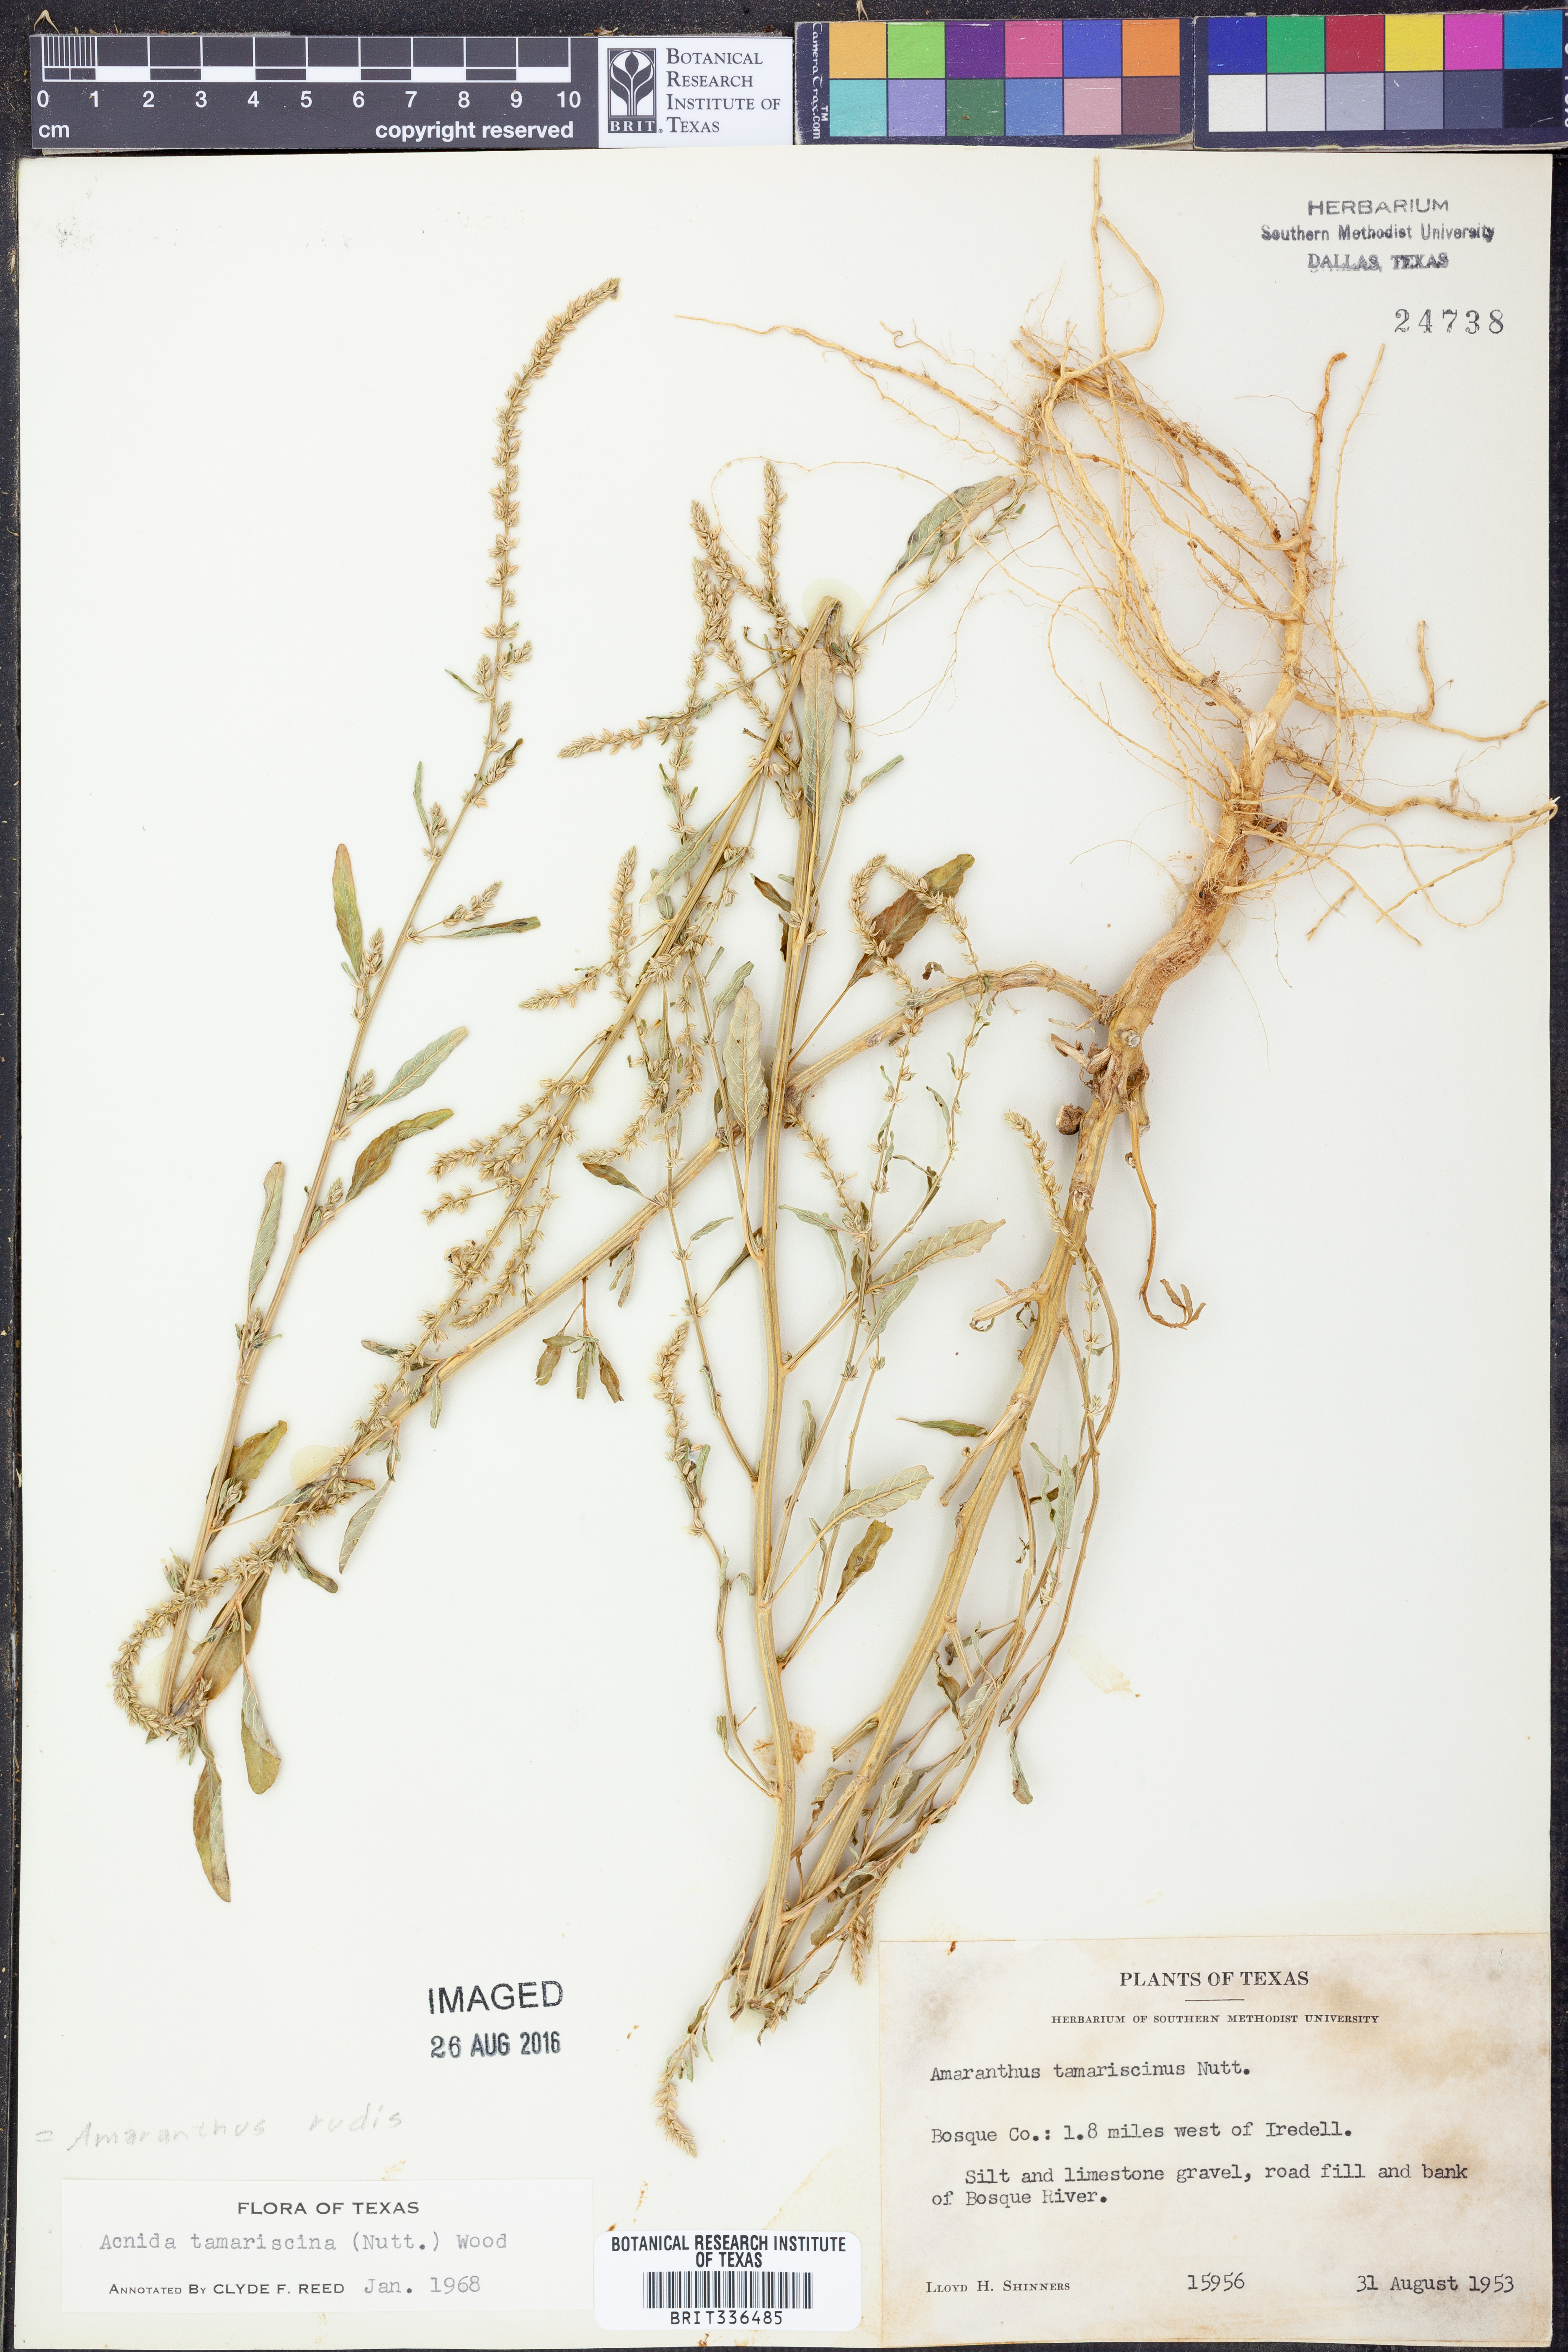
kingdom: Plantae
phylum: Tracheophyta
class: Magnoliopsida
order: Caryophyllales
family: Amaranthaceae
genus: Amaranthus
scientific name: Amaranthus tuberculatus
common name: Rough-fruit amaranth
